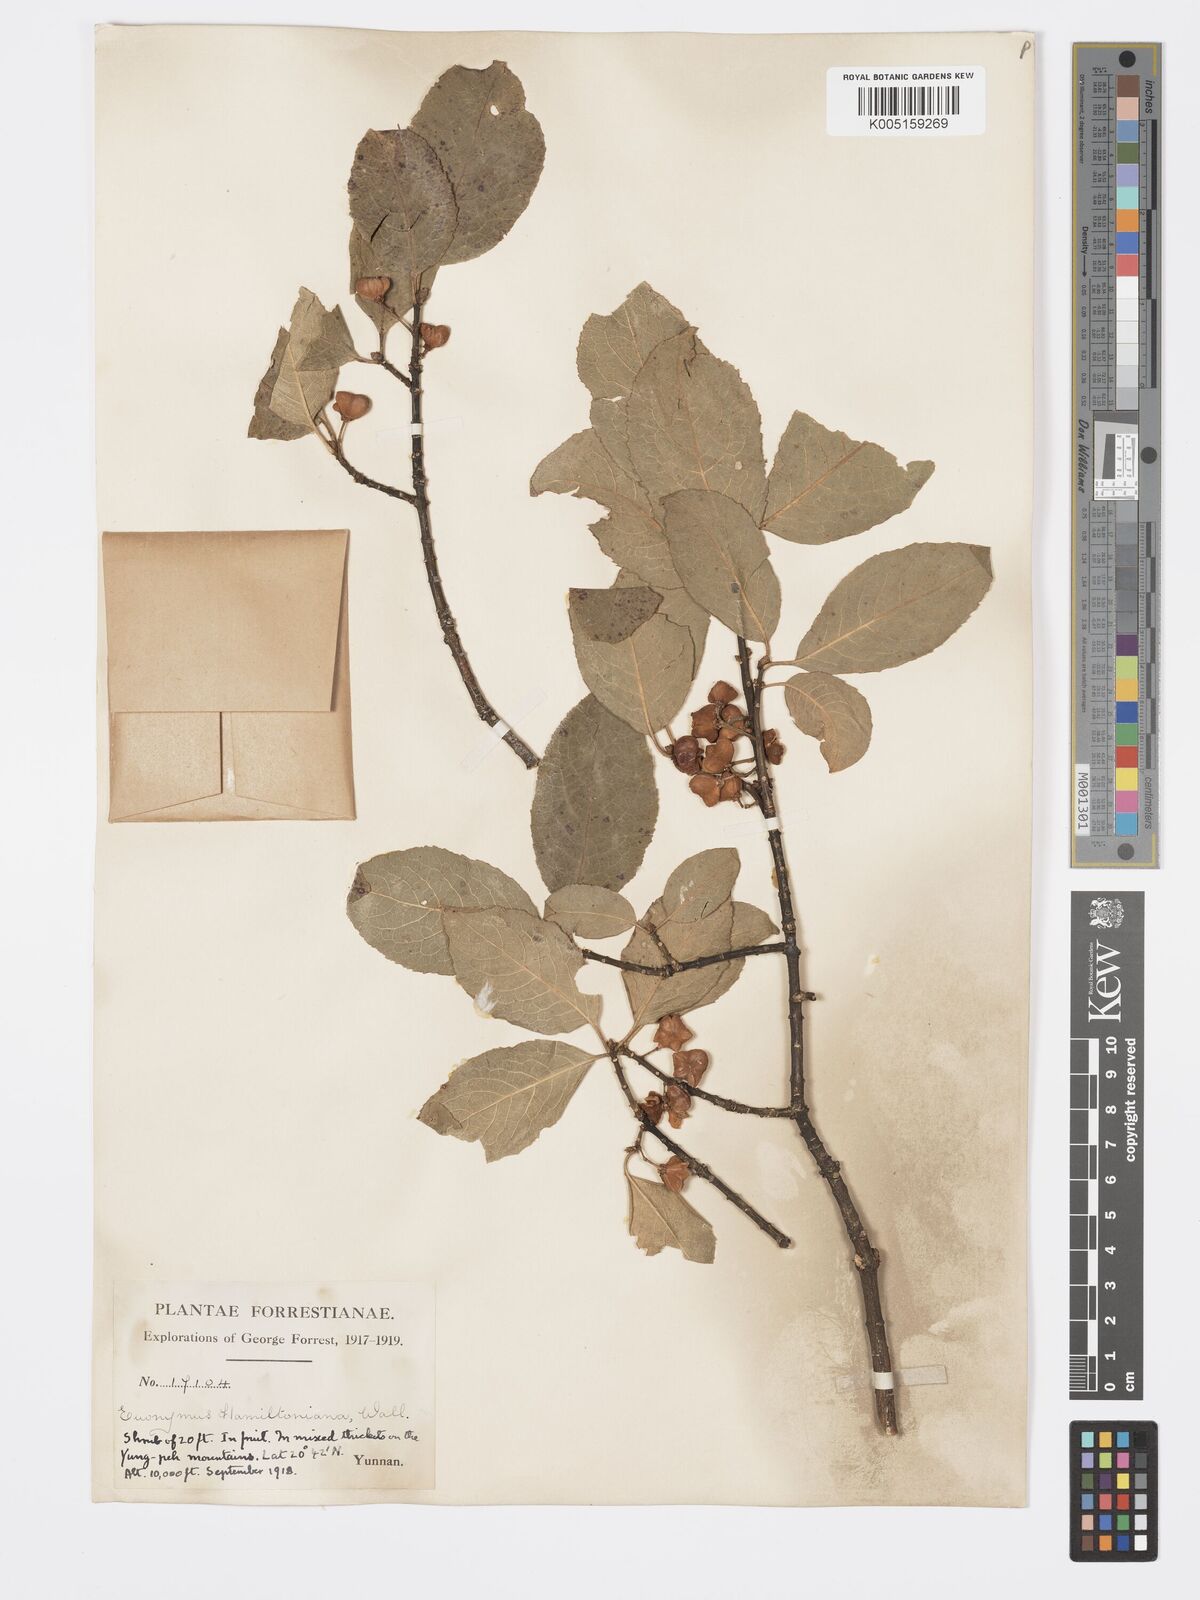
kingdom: Plantae
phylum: Tracheophyta
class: Magnoliopsida
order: Celastrales
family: Celastraceae
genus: Euonymus
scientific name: Euonymus hamiltonianus
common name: Hamilton's spindletree
